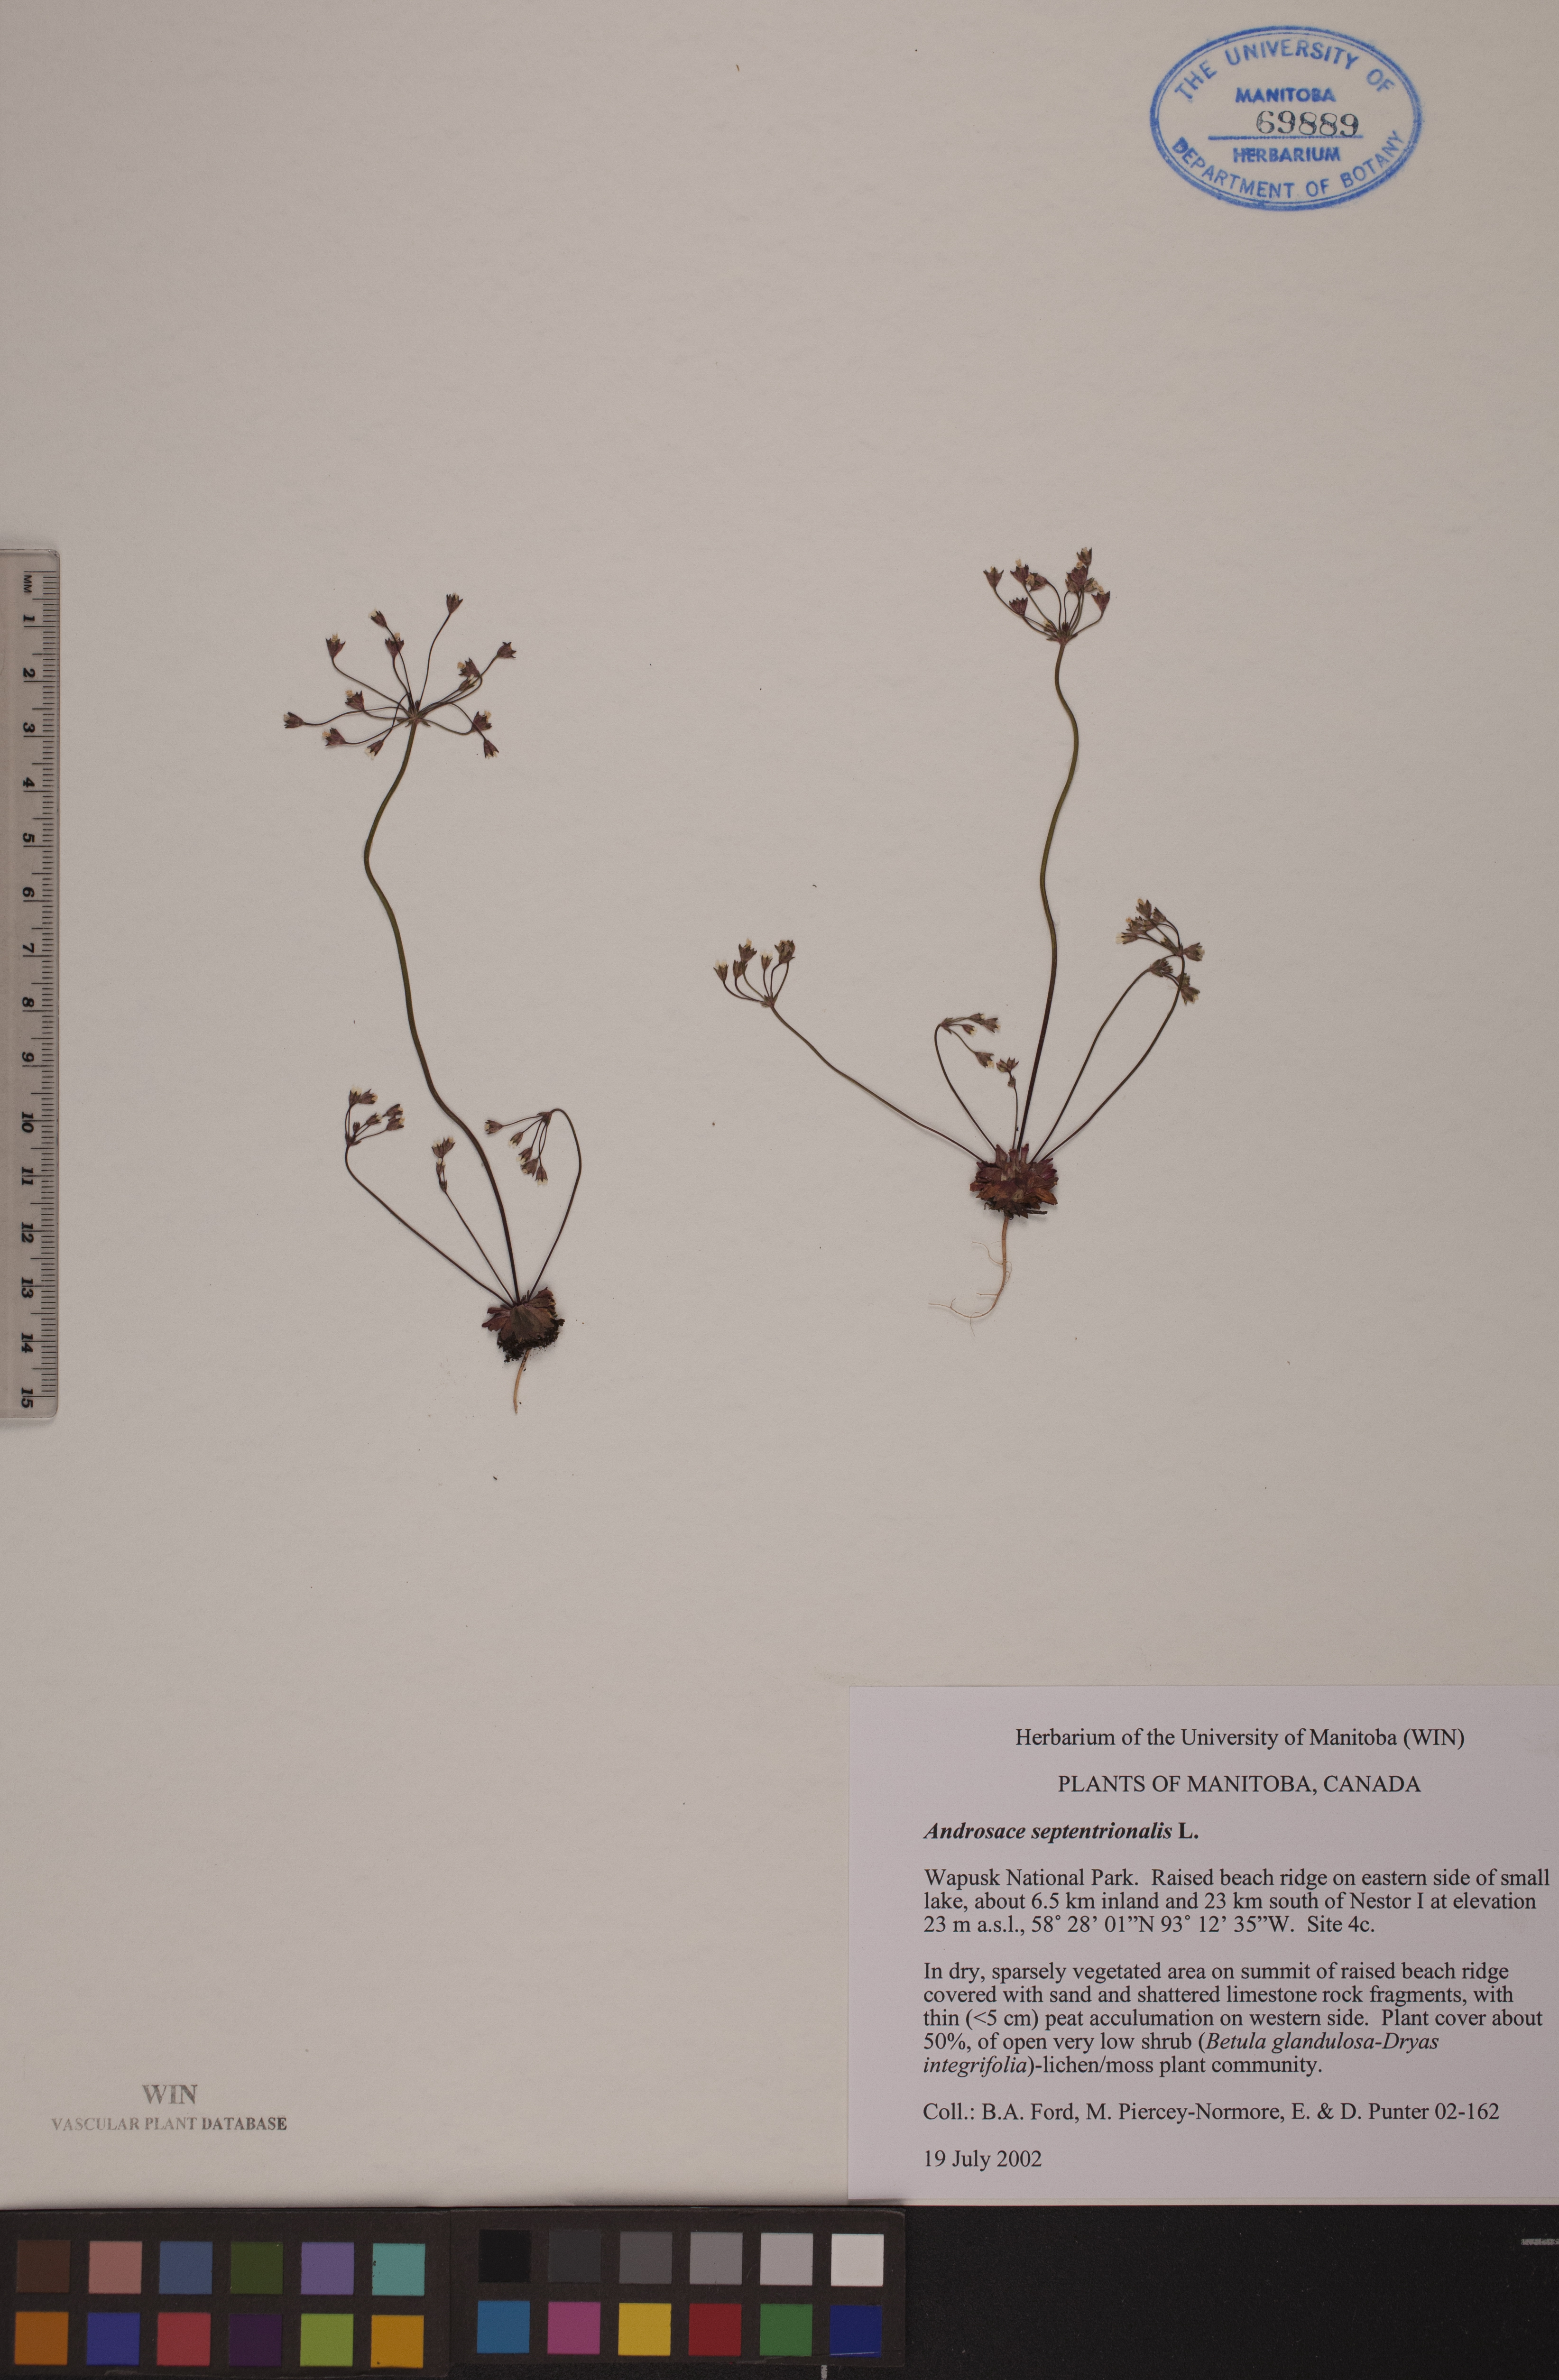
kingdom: Plantae
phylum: Tracheophyta
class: Magnoliopsida
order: Ericales
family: Primulaceae
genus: Androsace
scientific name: Androsace septentrionalis
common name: Hairy northern fairy-candelabra
